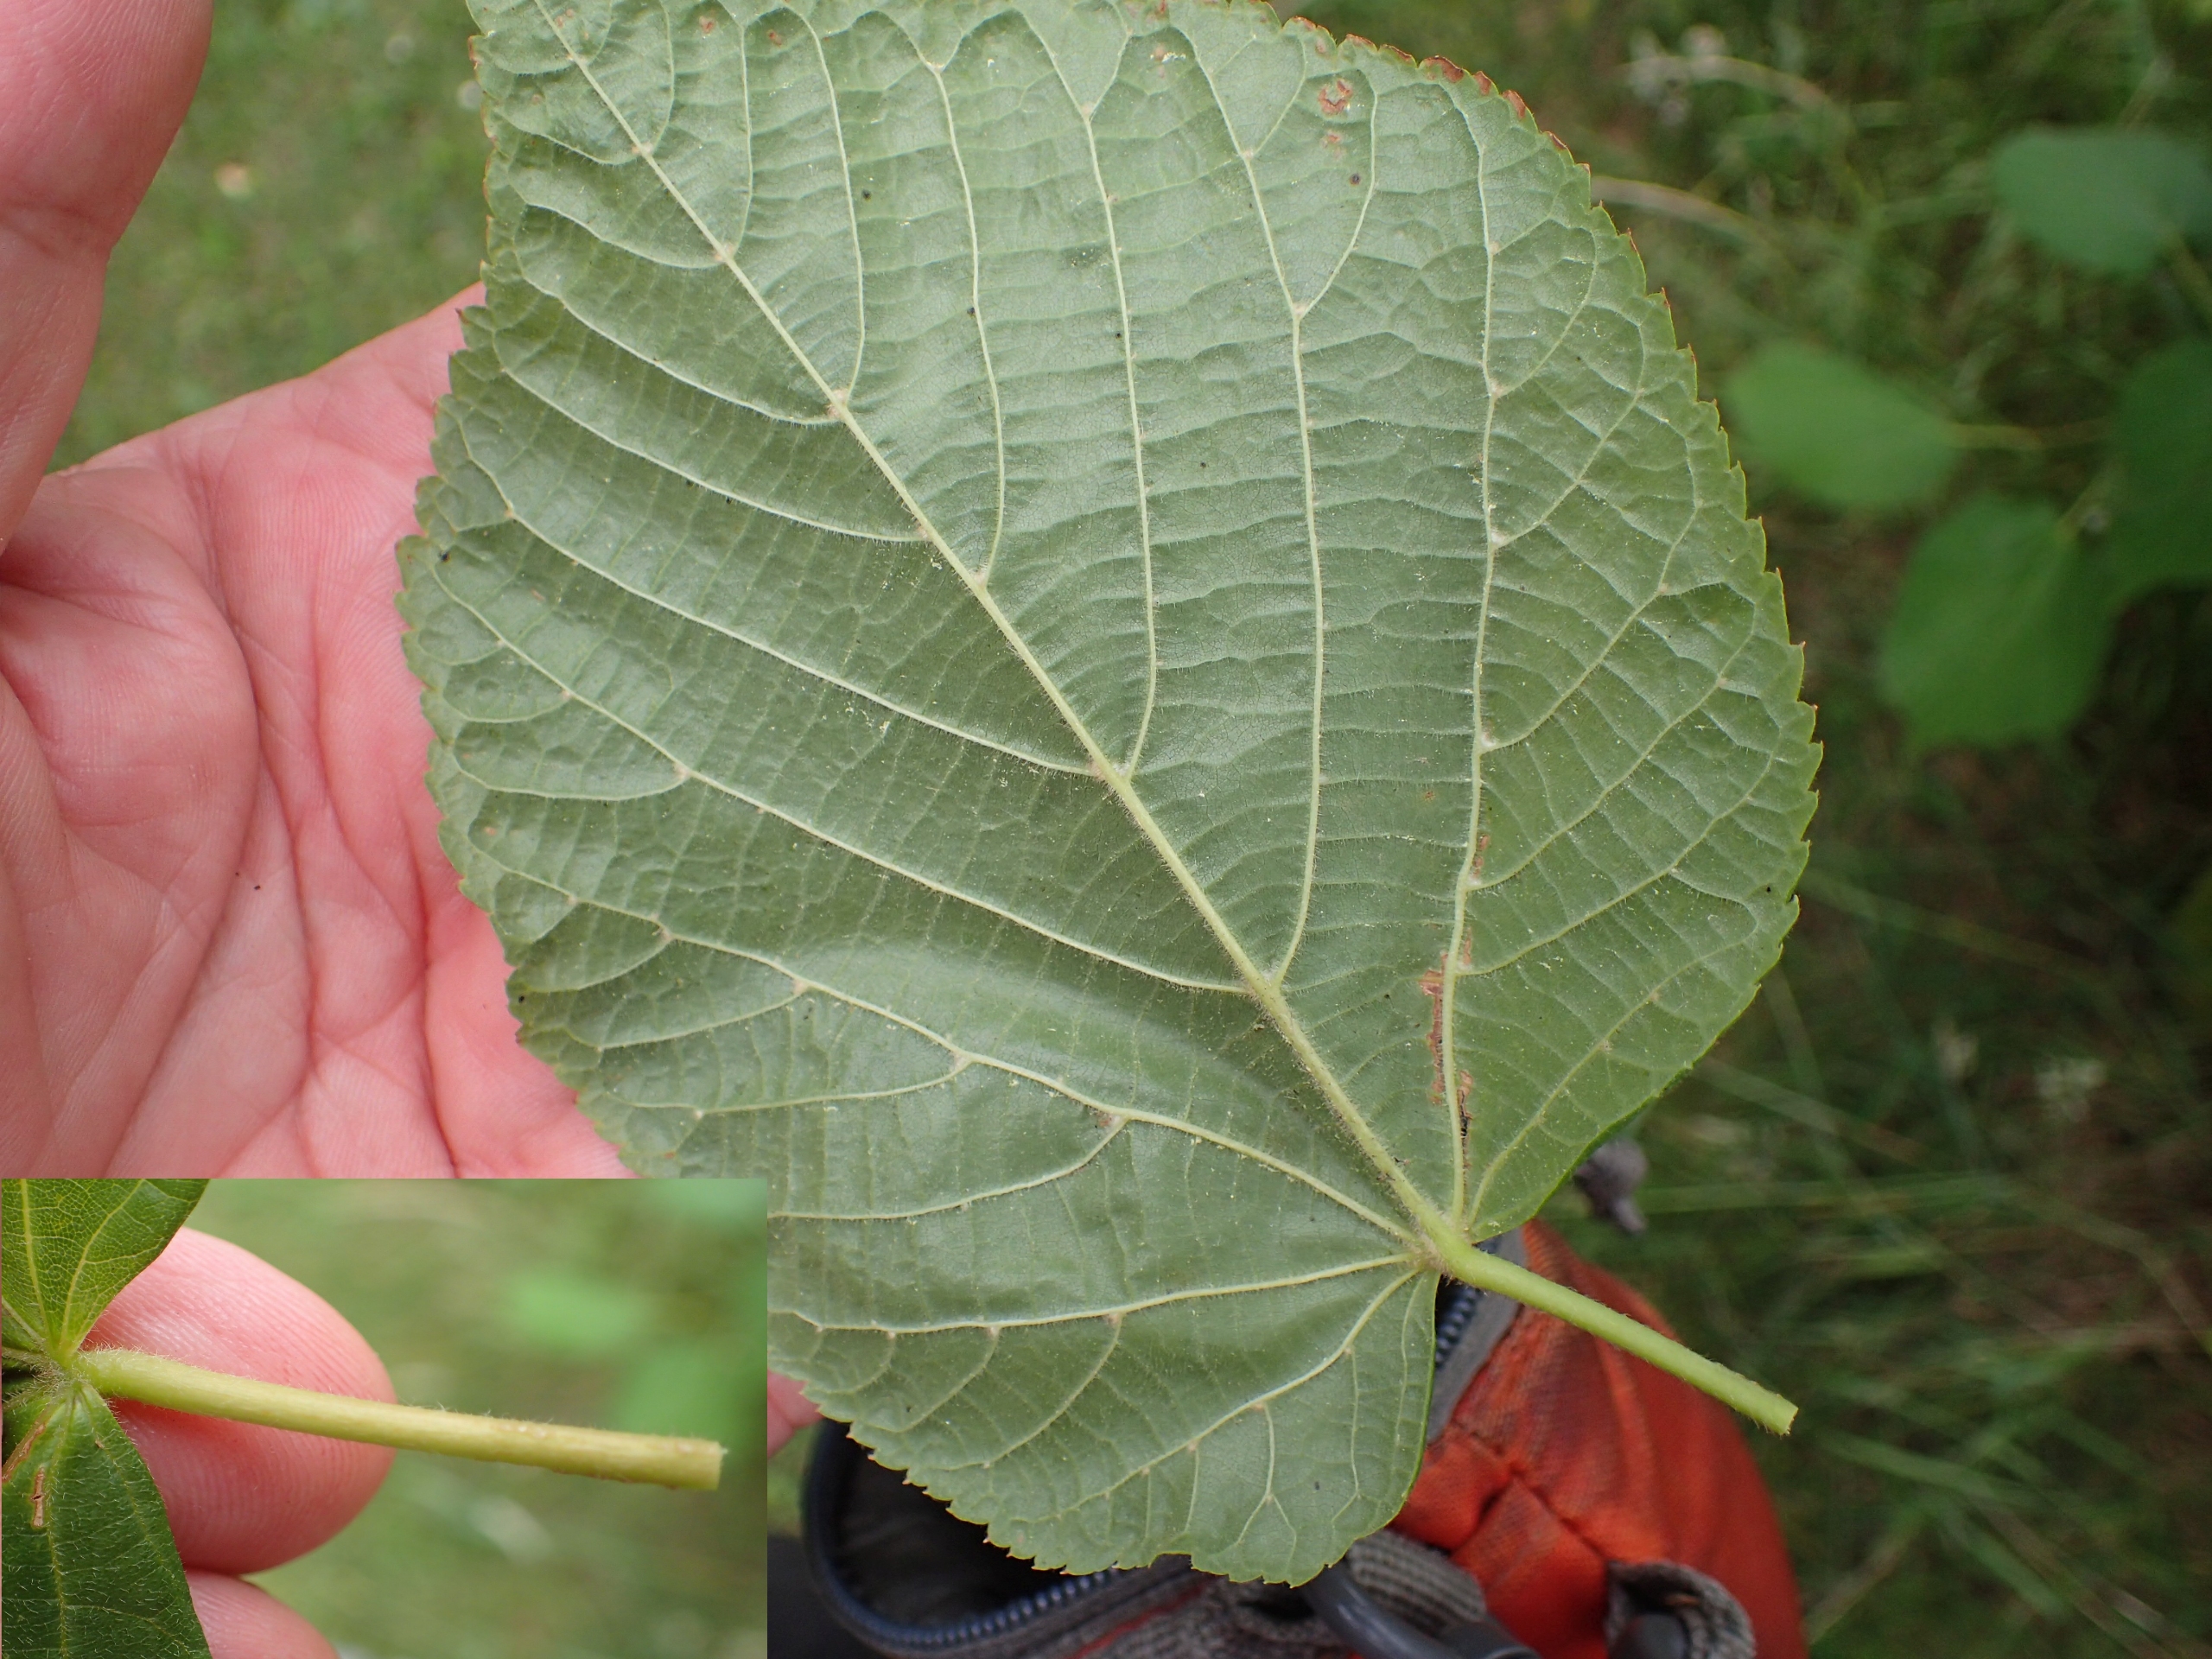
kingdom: Plantae
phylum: Tracheophyta
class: Magnoliopsida
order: Malvales
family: Malvaceae
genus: Tilia
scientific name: Tilia platyphyllos
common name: Storbladet lind
